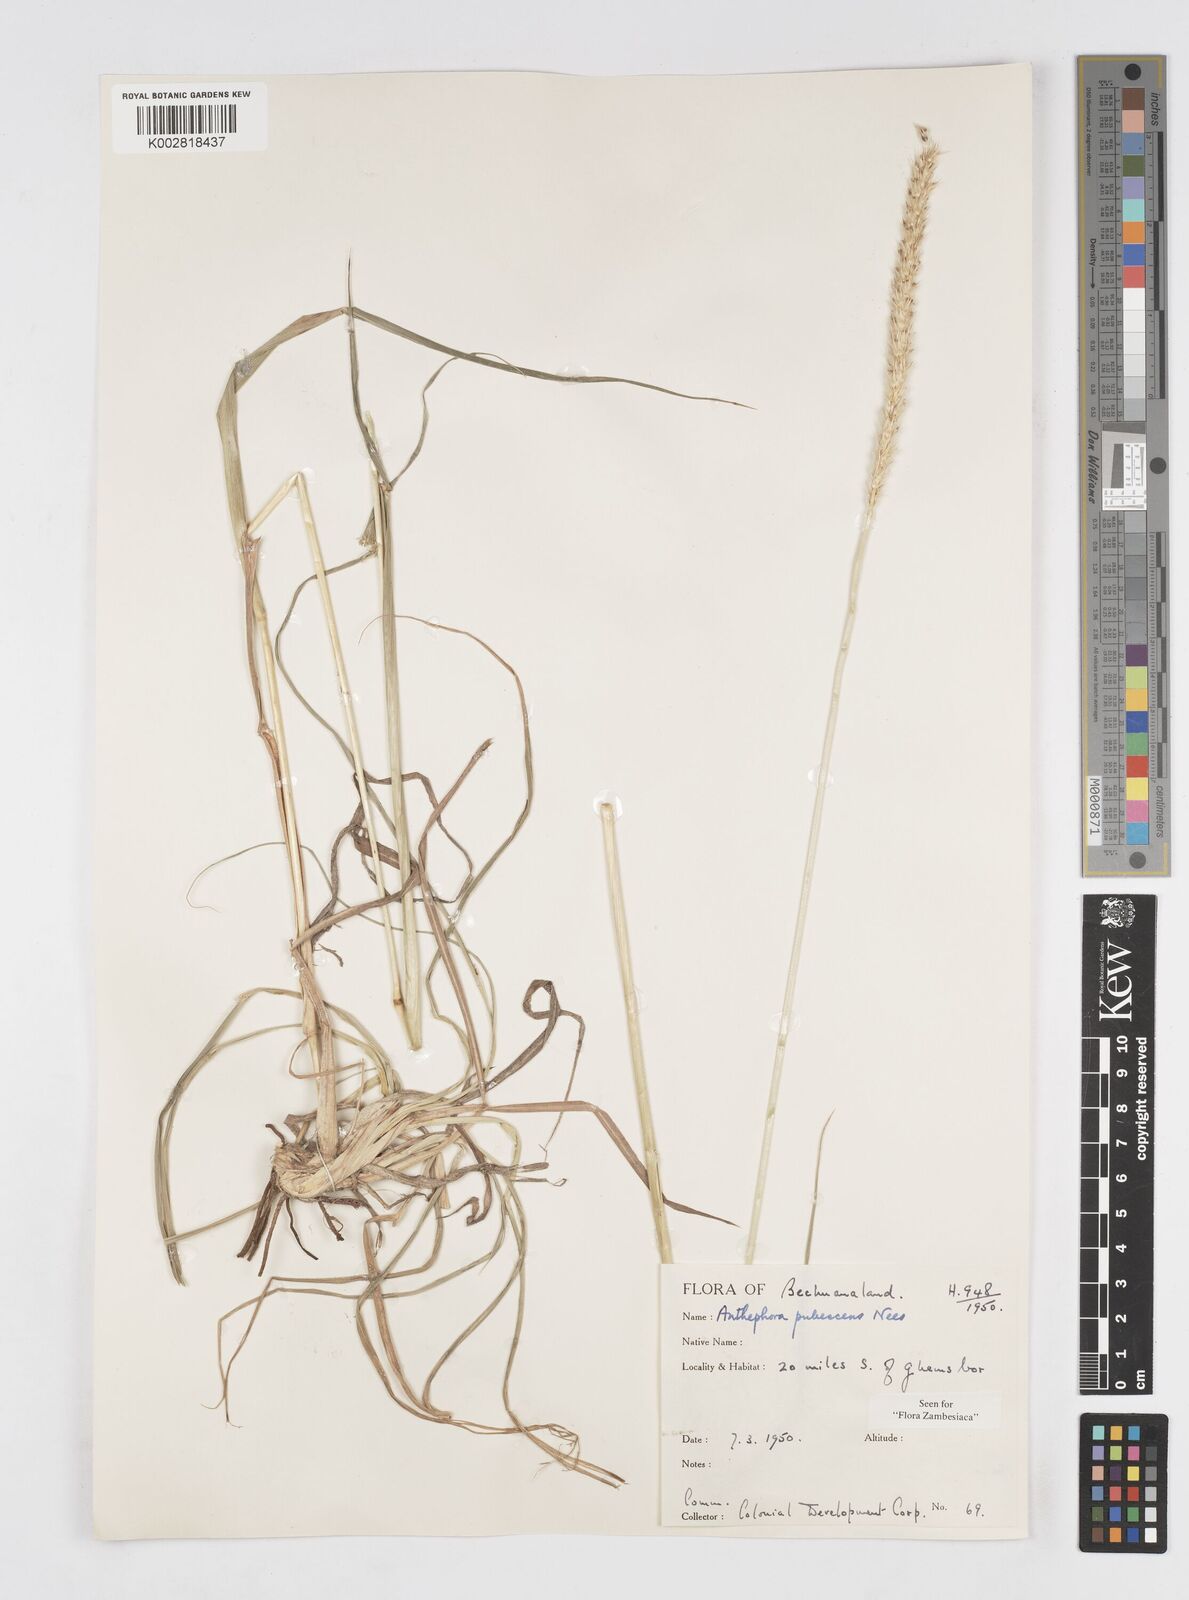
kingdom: Plantae
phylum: Tracheophyta
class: Liliopsida
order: Poales
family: Poaceae
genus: Anthephora
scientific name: Anthephora pubescens
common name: Wool grass
